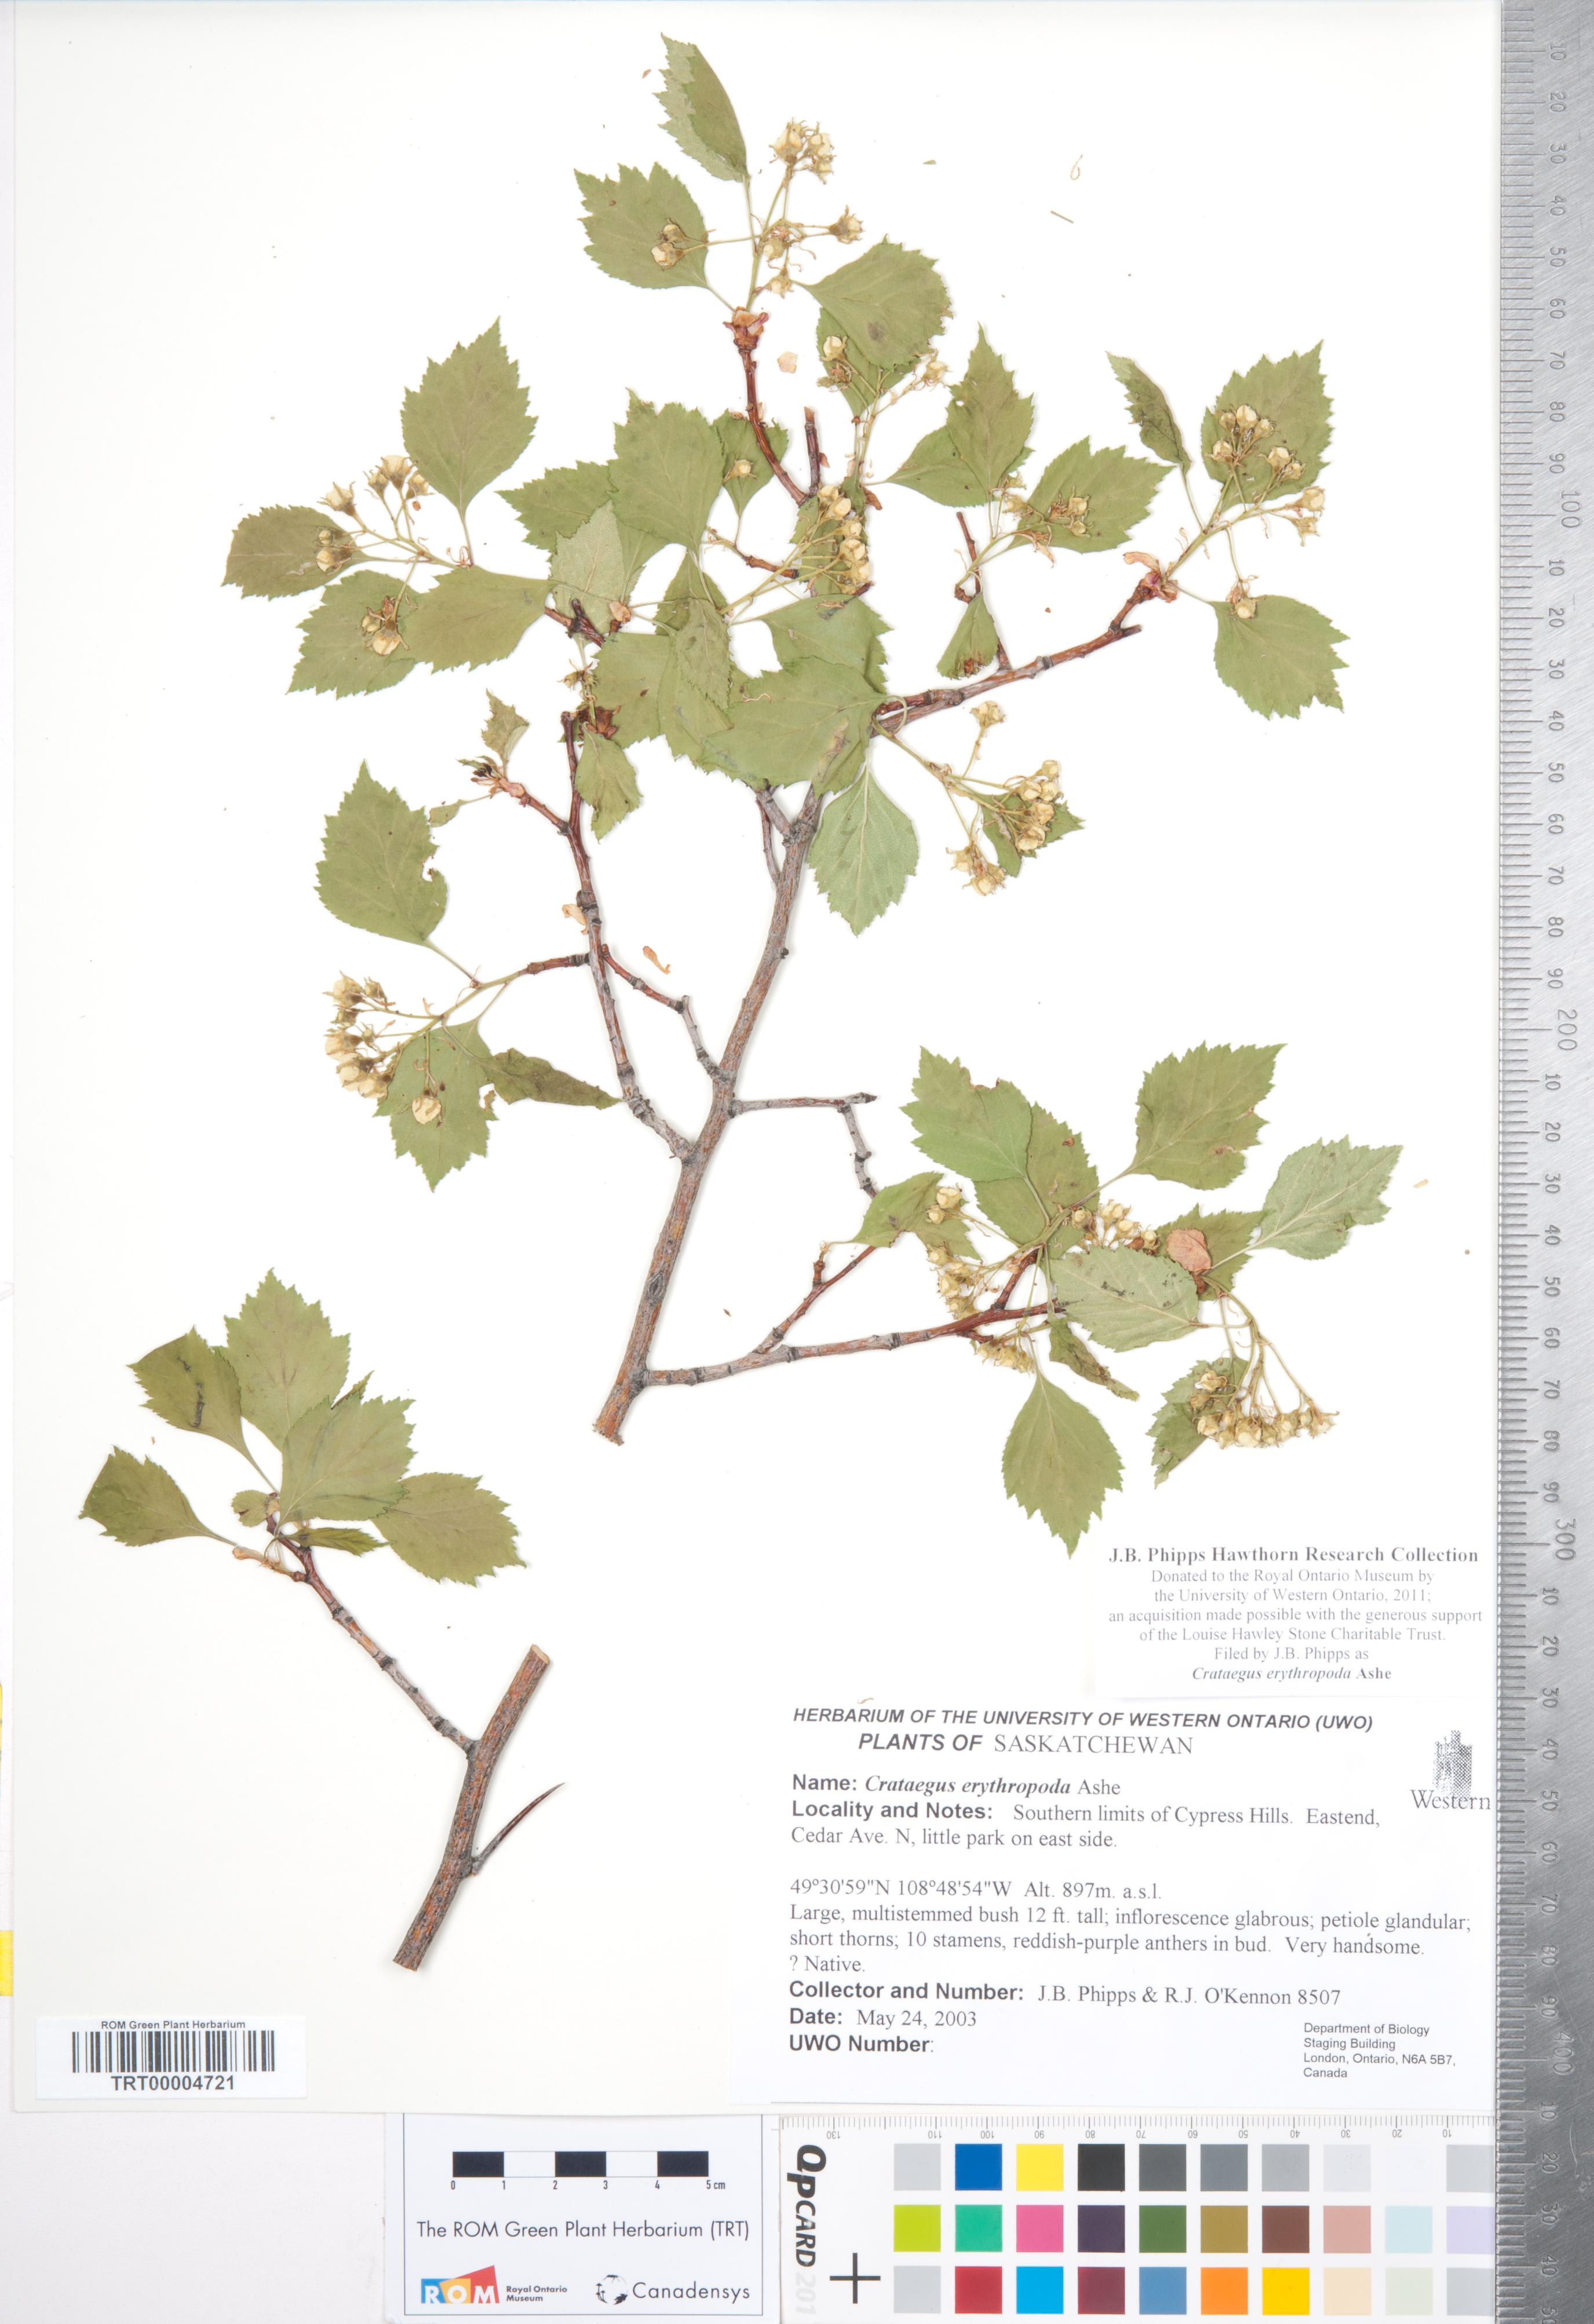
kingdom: Plantae
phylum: Tracheophyta
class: Magnoliopsida
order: Rosales
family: Rosaceae
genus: Crataegus
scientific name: Crataegus erythropoda
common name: Cerro hawthorn
